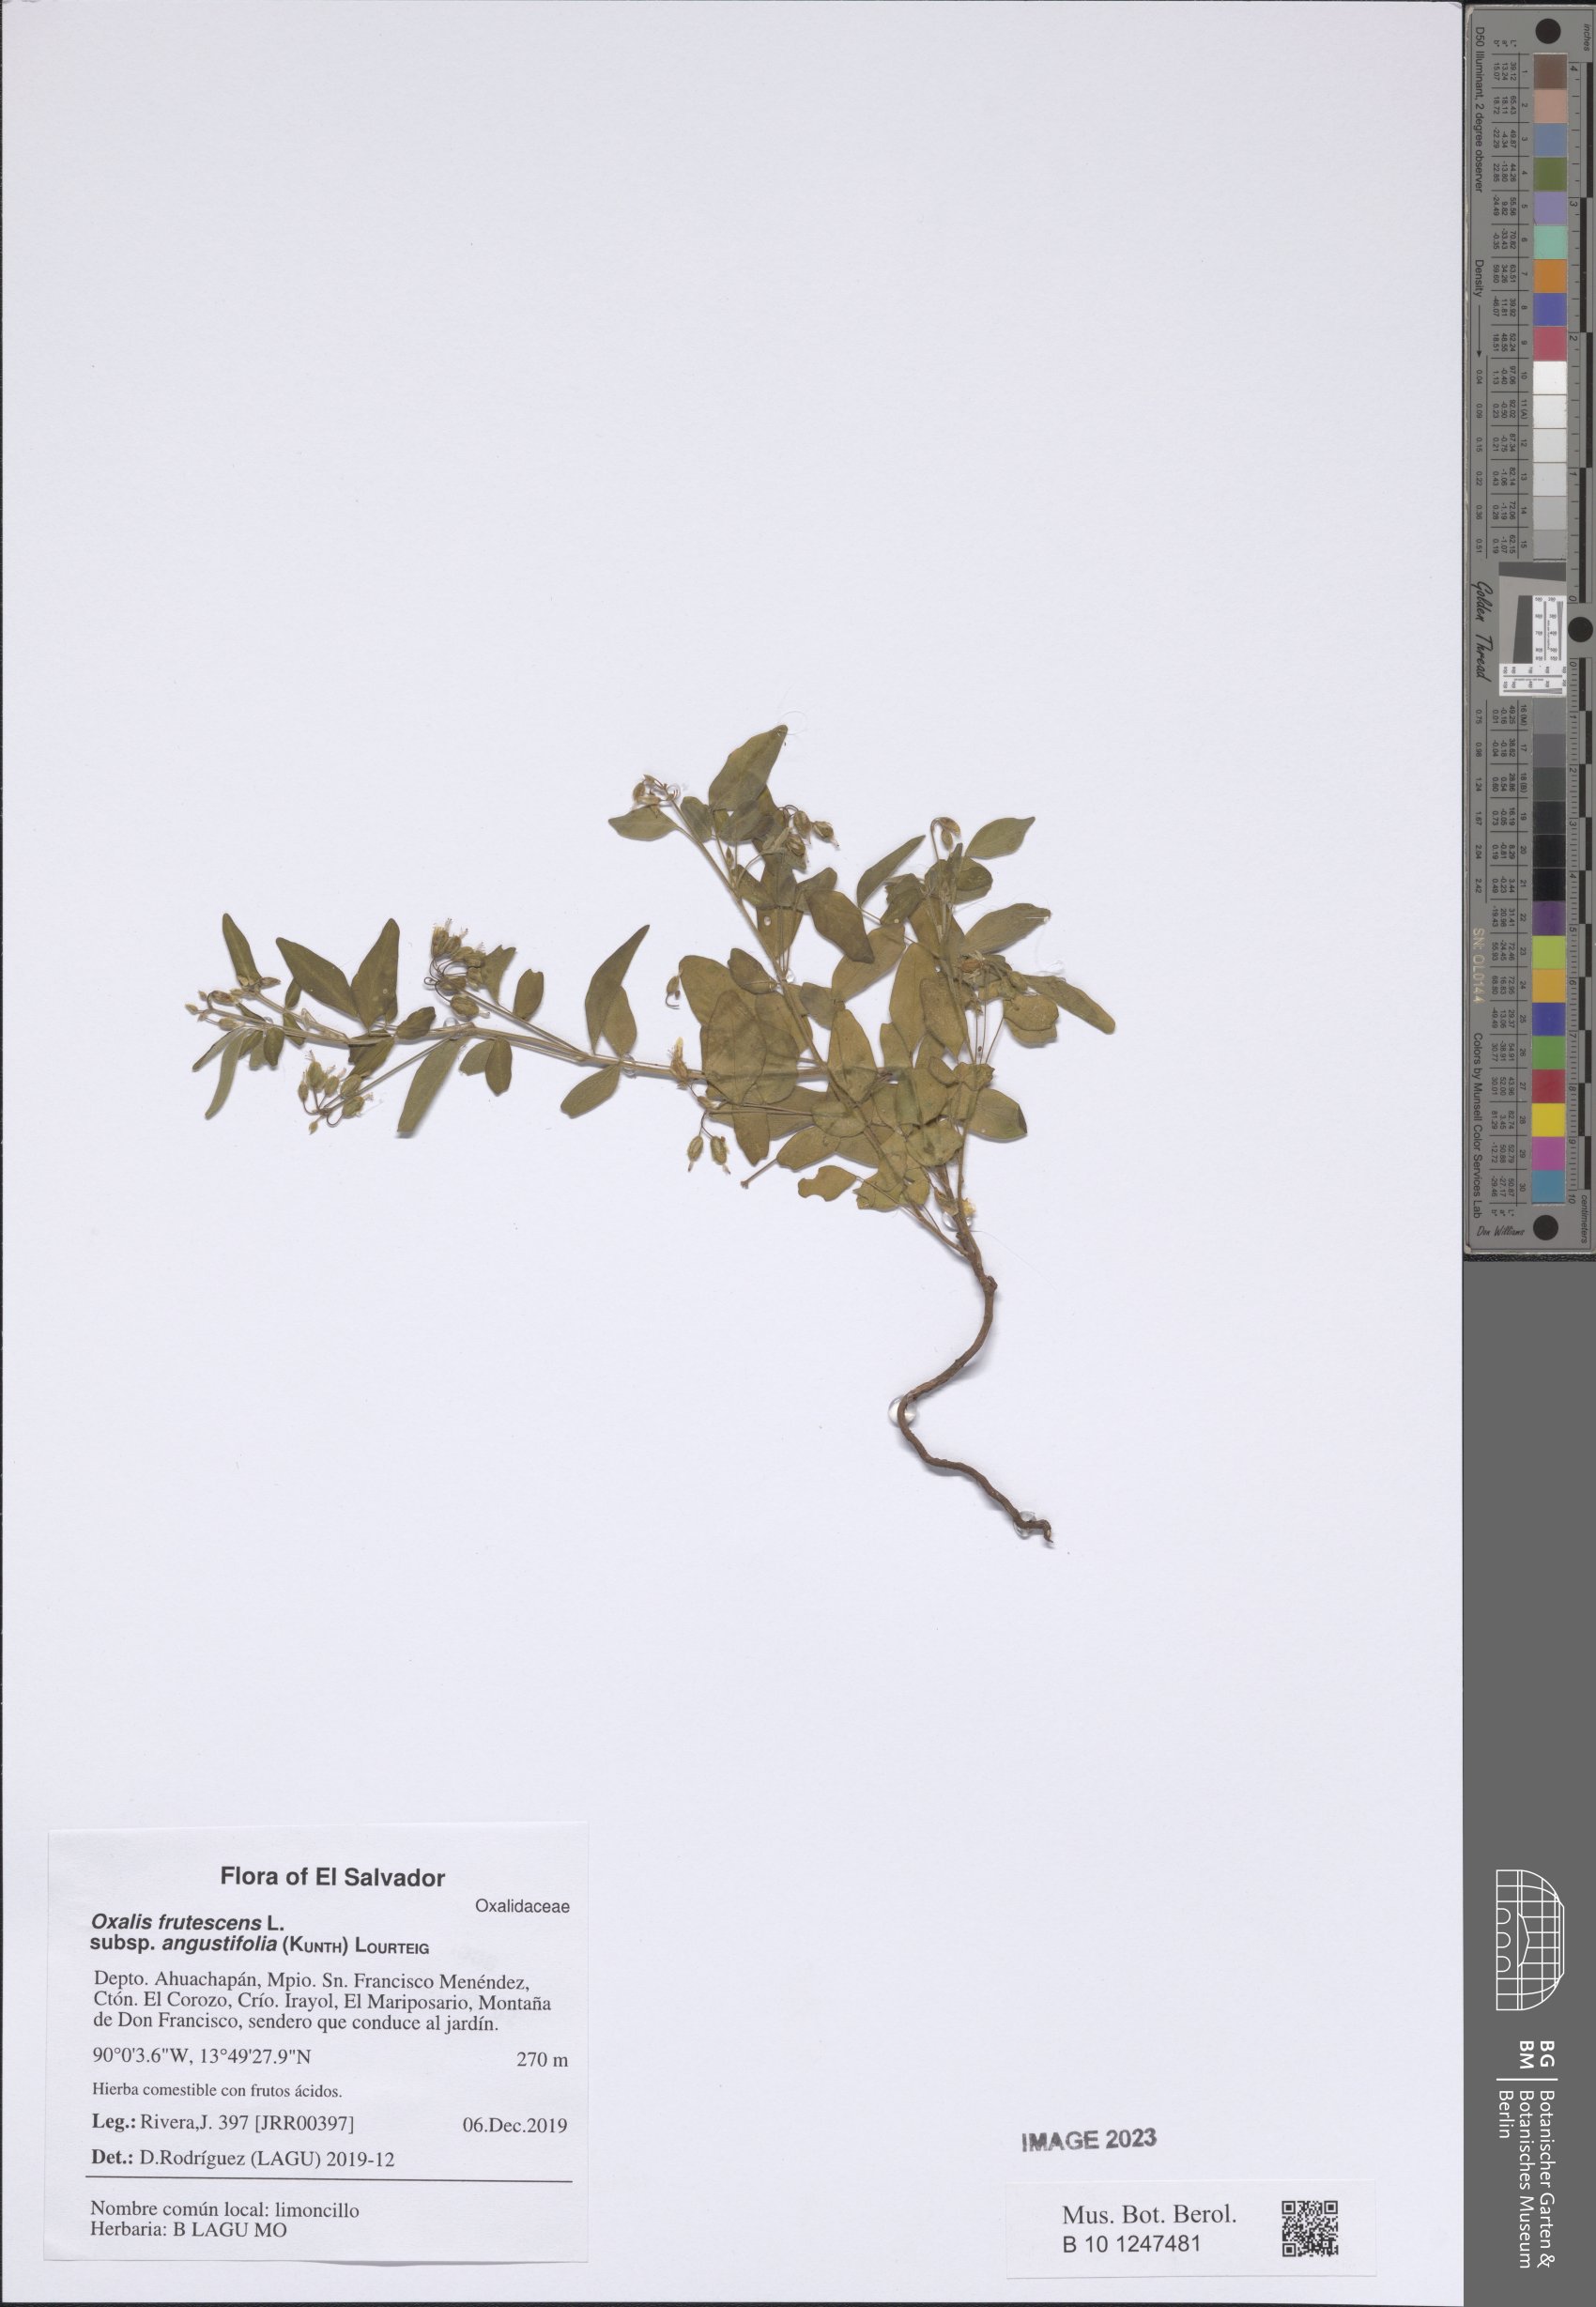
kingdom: Plantae
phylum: Tracheophyta
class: Magnoliopsida
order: Oxalidales
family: Oxalidaceae
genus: Oxalis
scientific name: Oxalis frutescens
